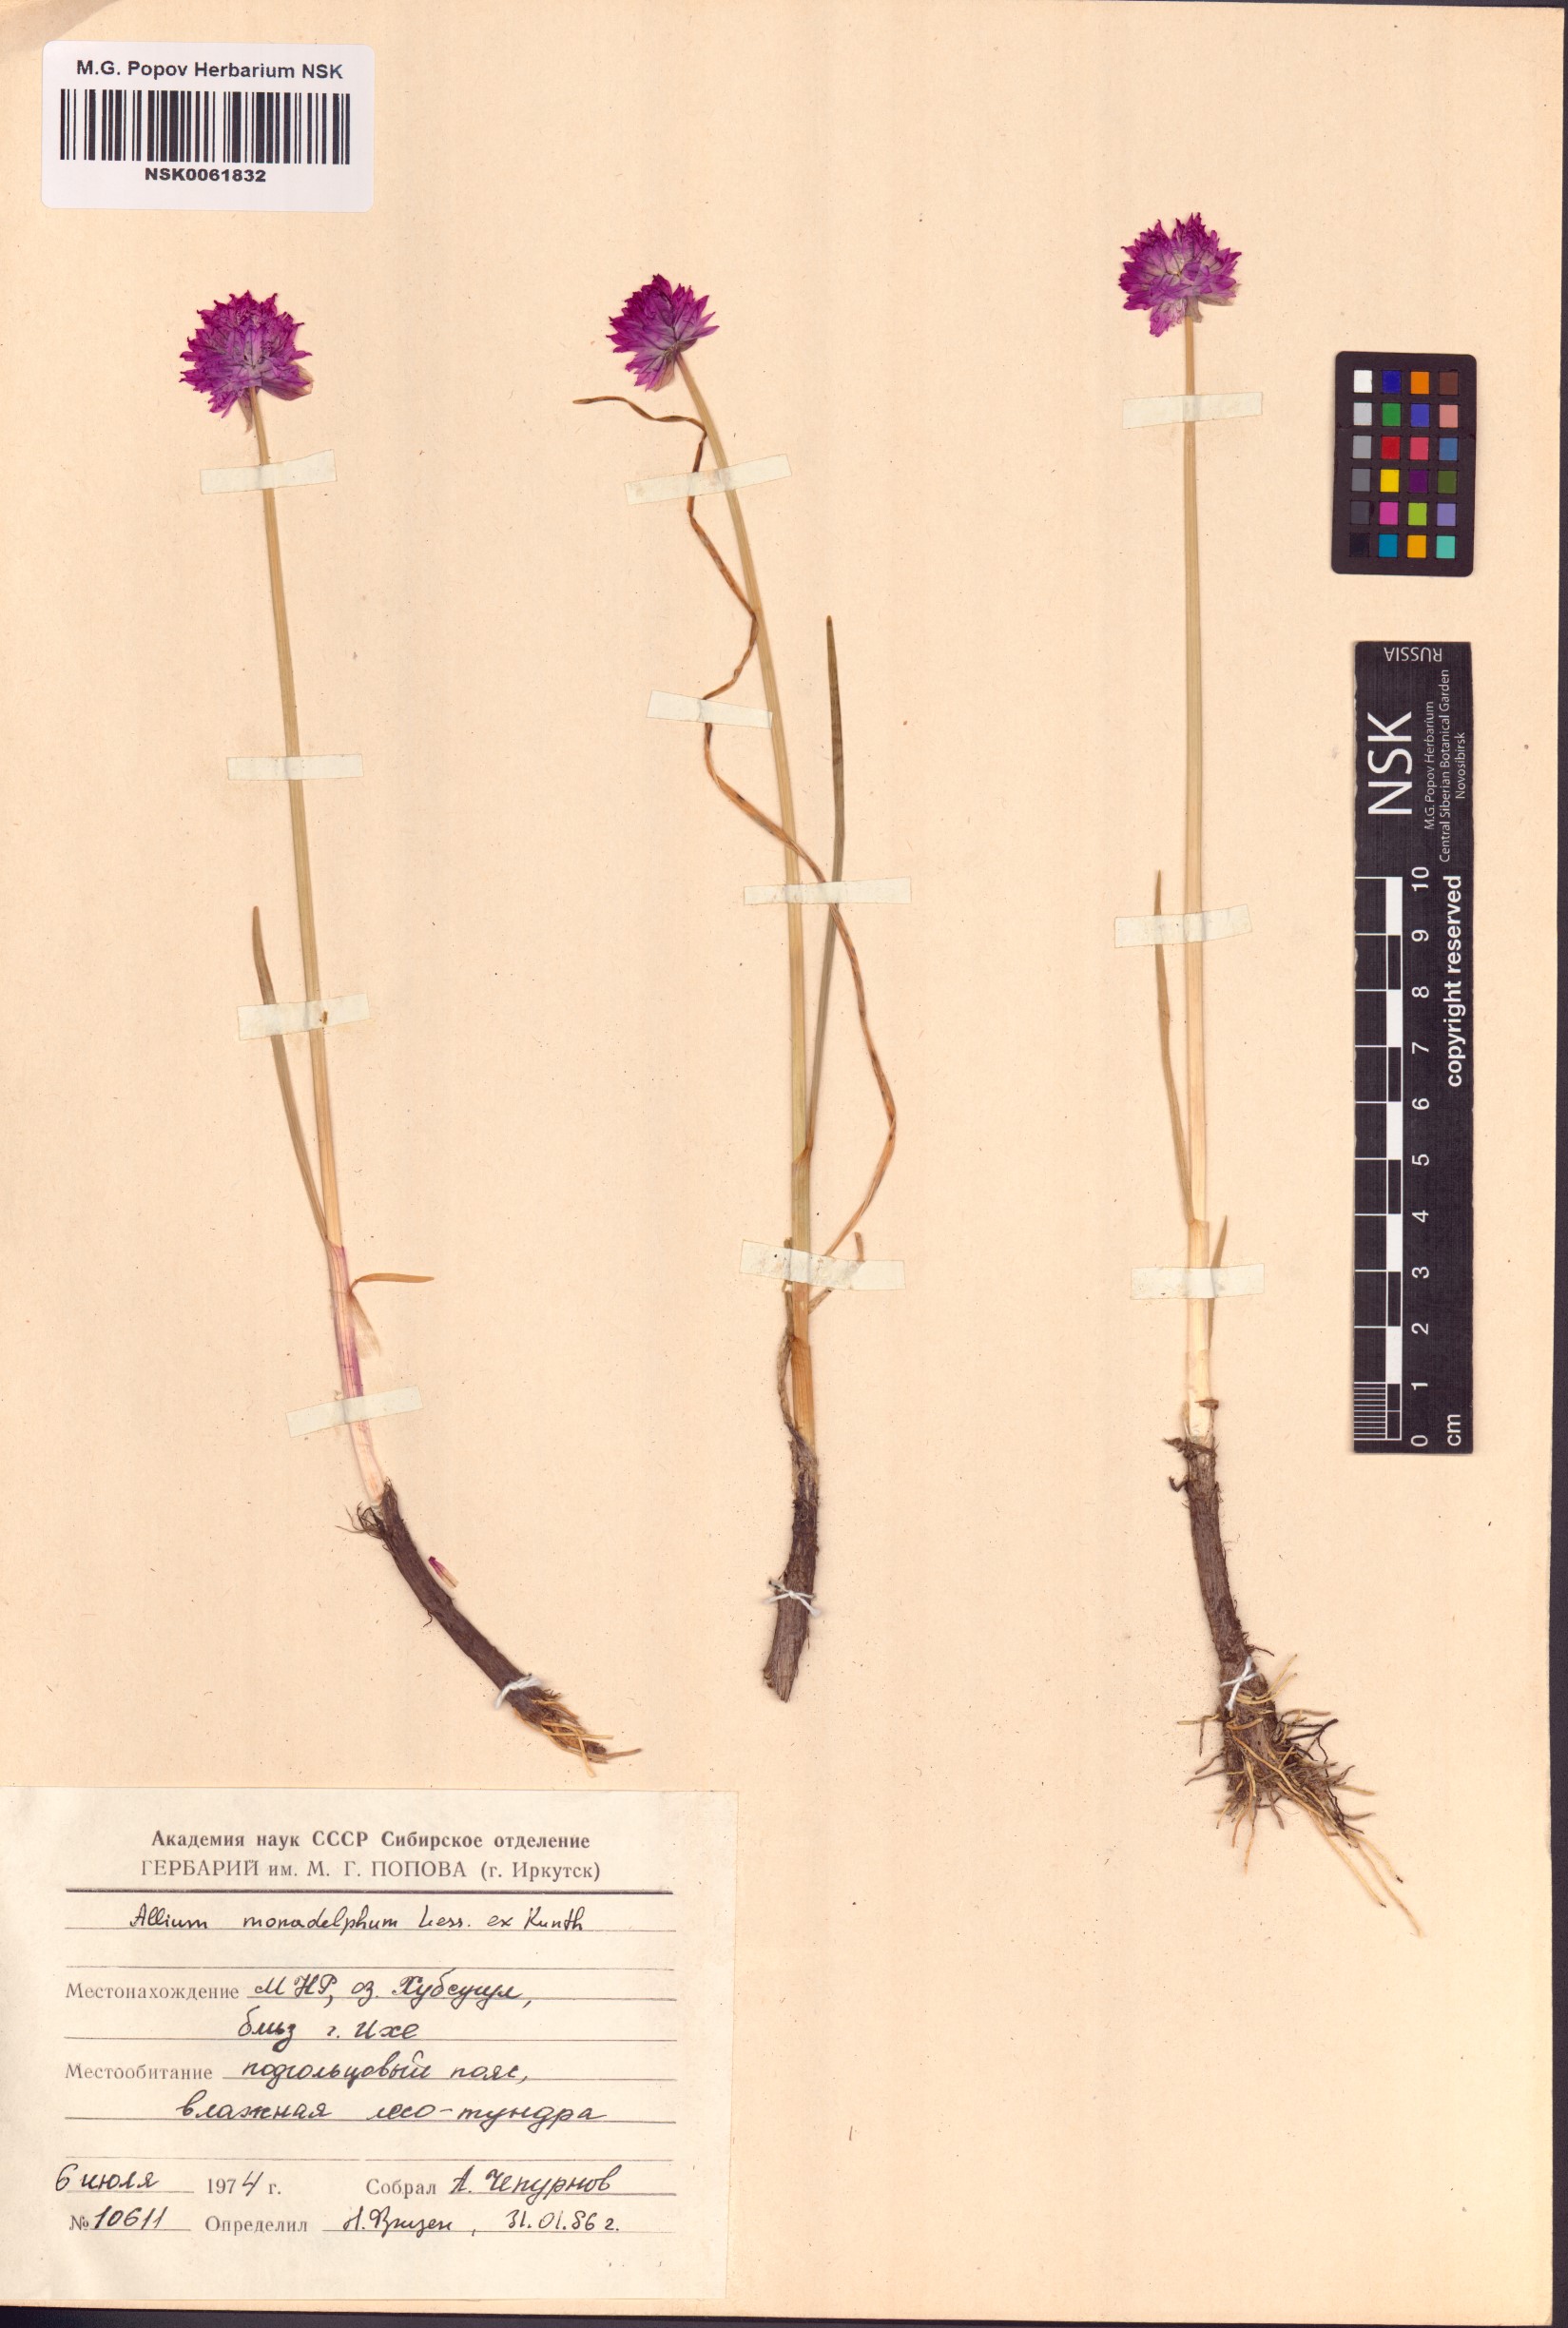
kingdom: Plantae
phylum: Tracheophyta
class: Liliopsida
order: Asparagales
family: Amaryllidaceae
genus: Allium
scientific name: Allium atrosanguineum
